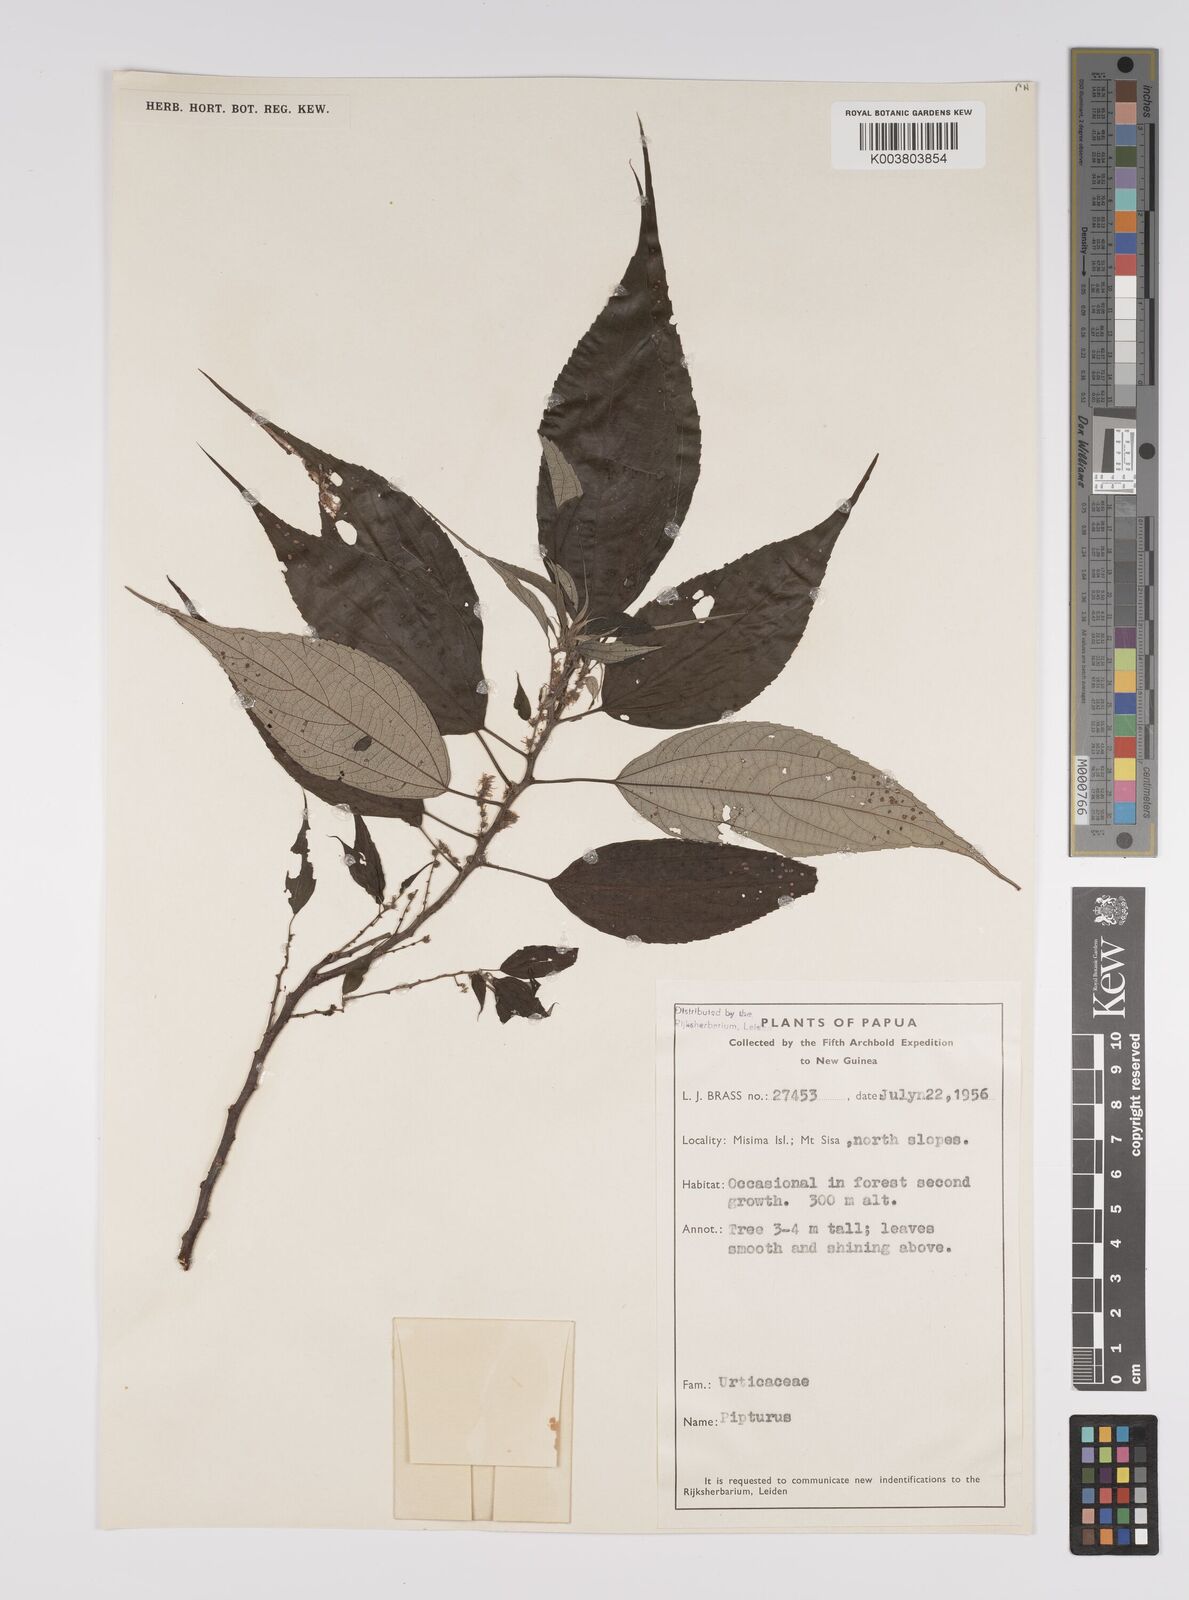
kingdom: Plantae
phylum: Tracheophyta
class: Magnoliopsida
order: Rosales
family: Urticaceae
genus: Pipturus
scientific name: Pipturus argenteus
